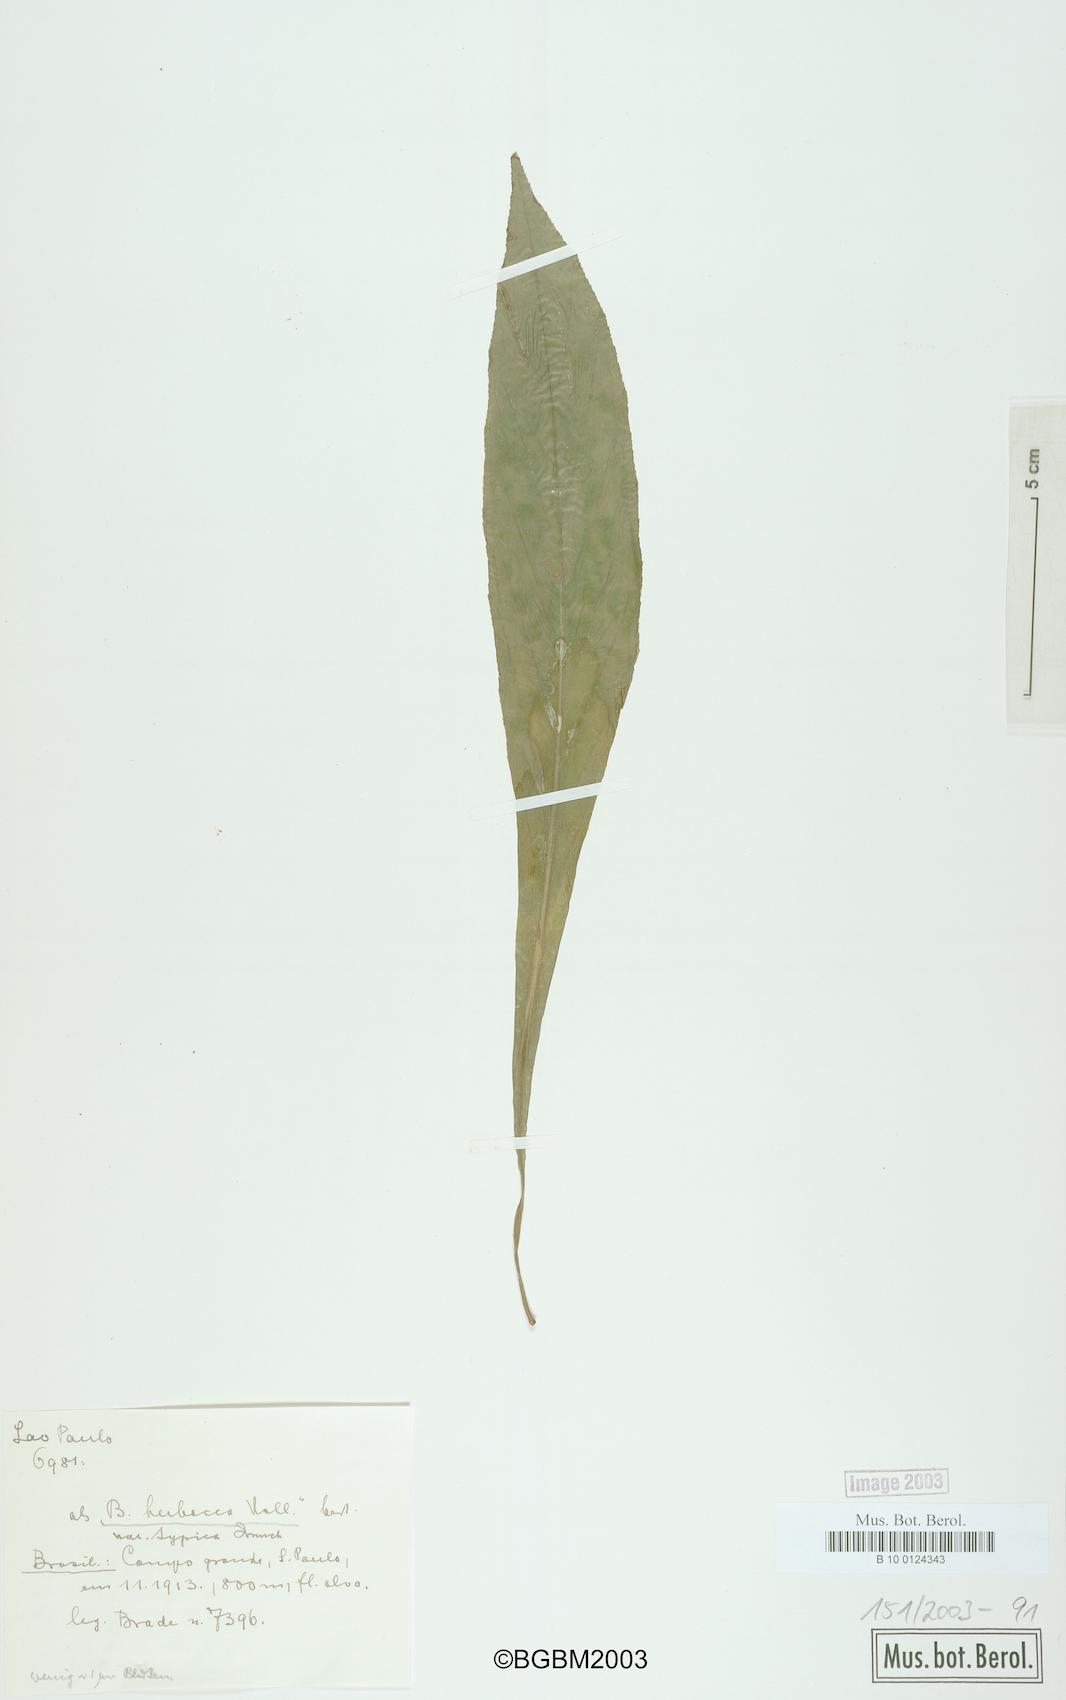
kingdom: Plantae
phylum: Tracheophyta
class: Magnoliopsida
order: Cucurbitales
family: Begoniaceae
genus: Begonia
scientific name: Begonia herbacea
